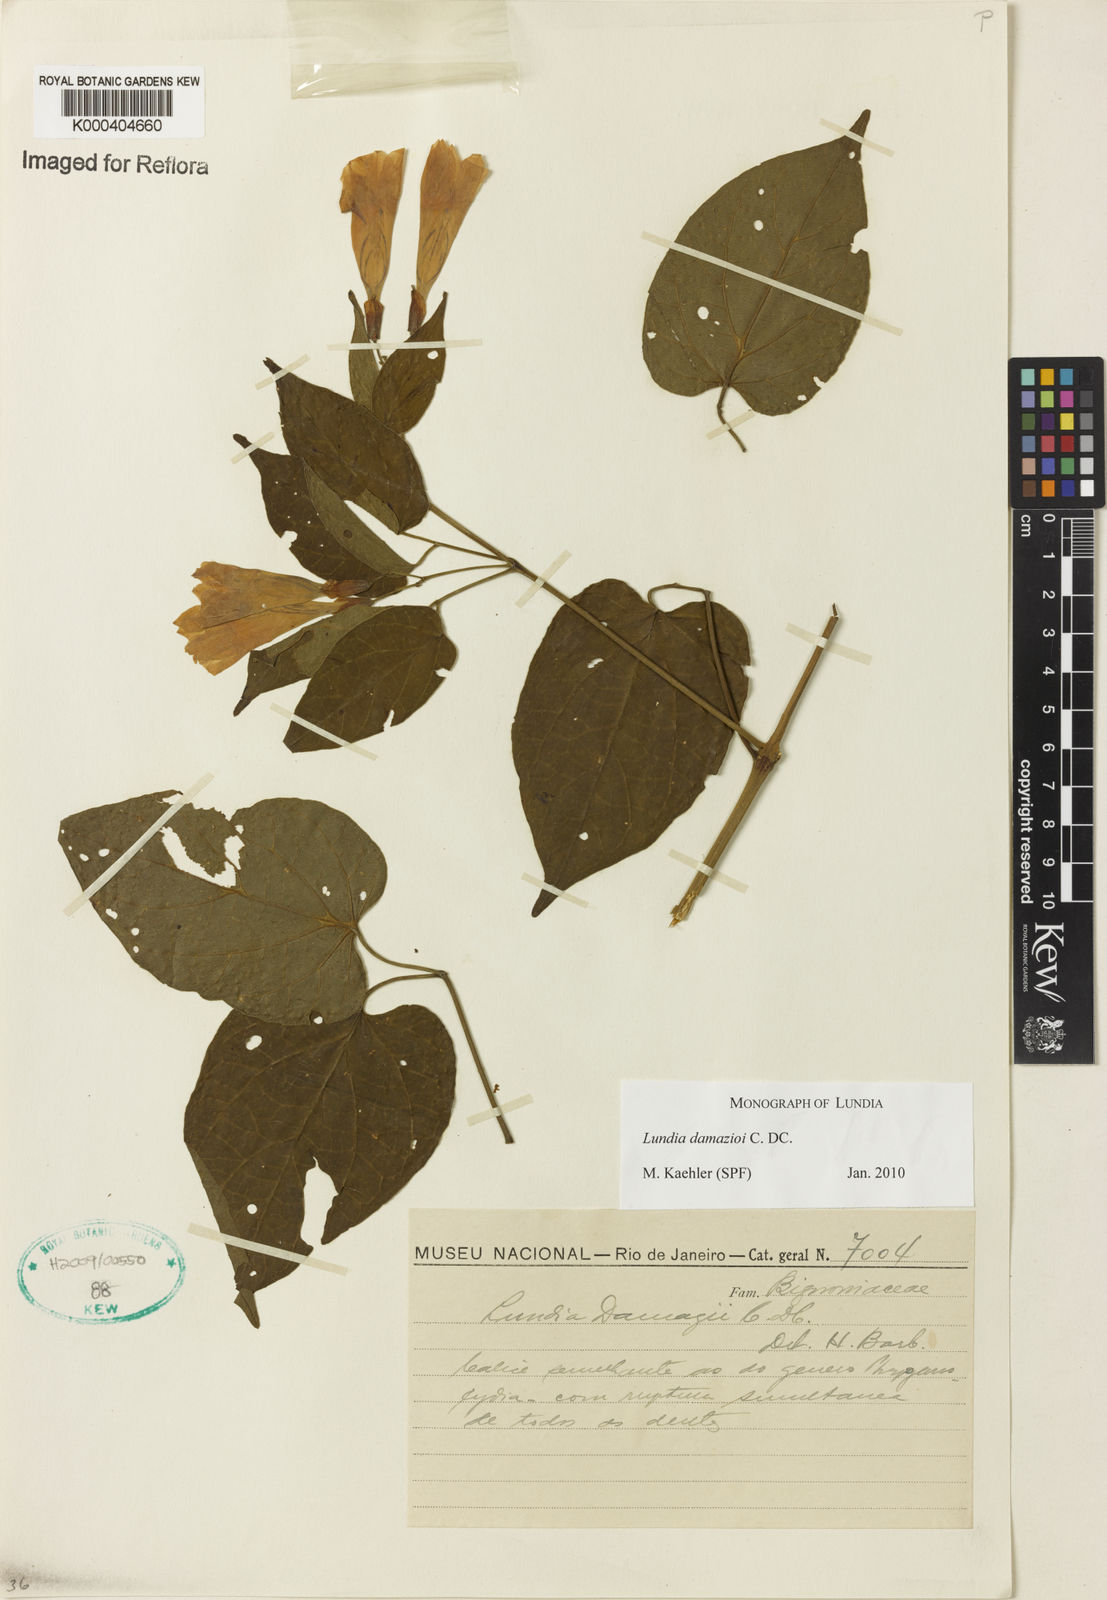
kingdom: Plantae
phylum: Tracheophyta
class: Magnoliopsida
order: Lamiales
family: Bignoniaceae
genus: Lundia
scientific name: Lundia
